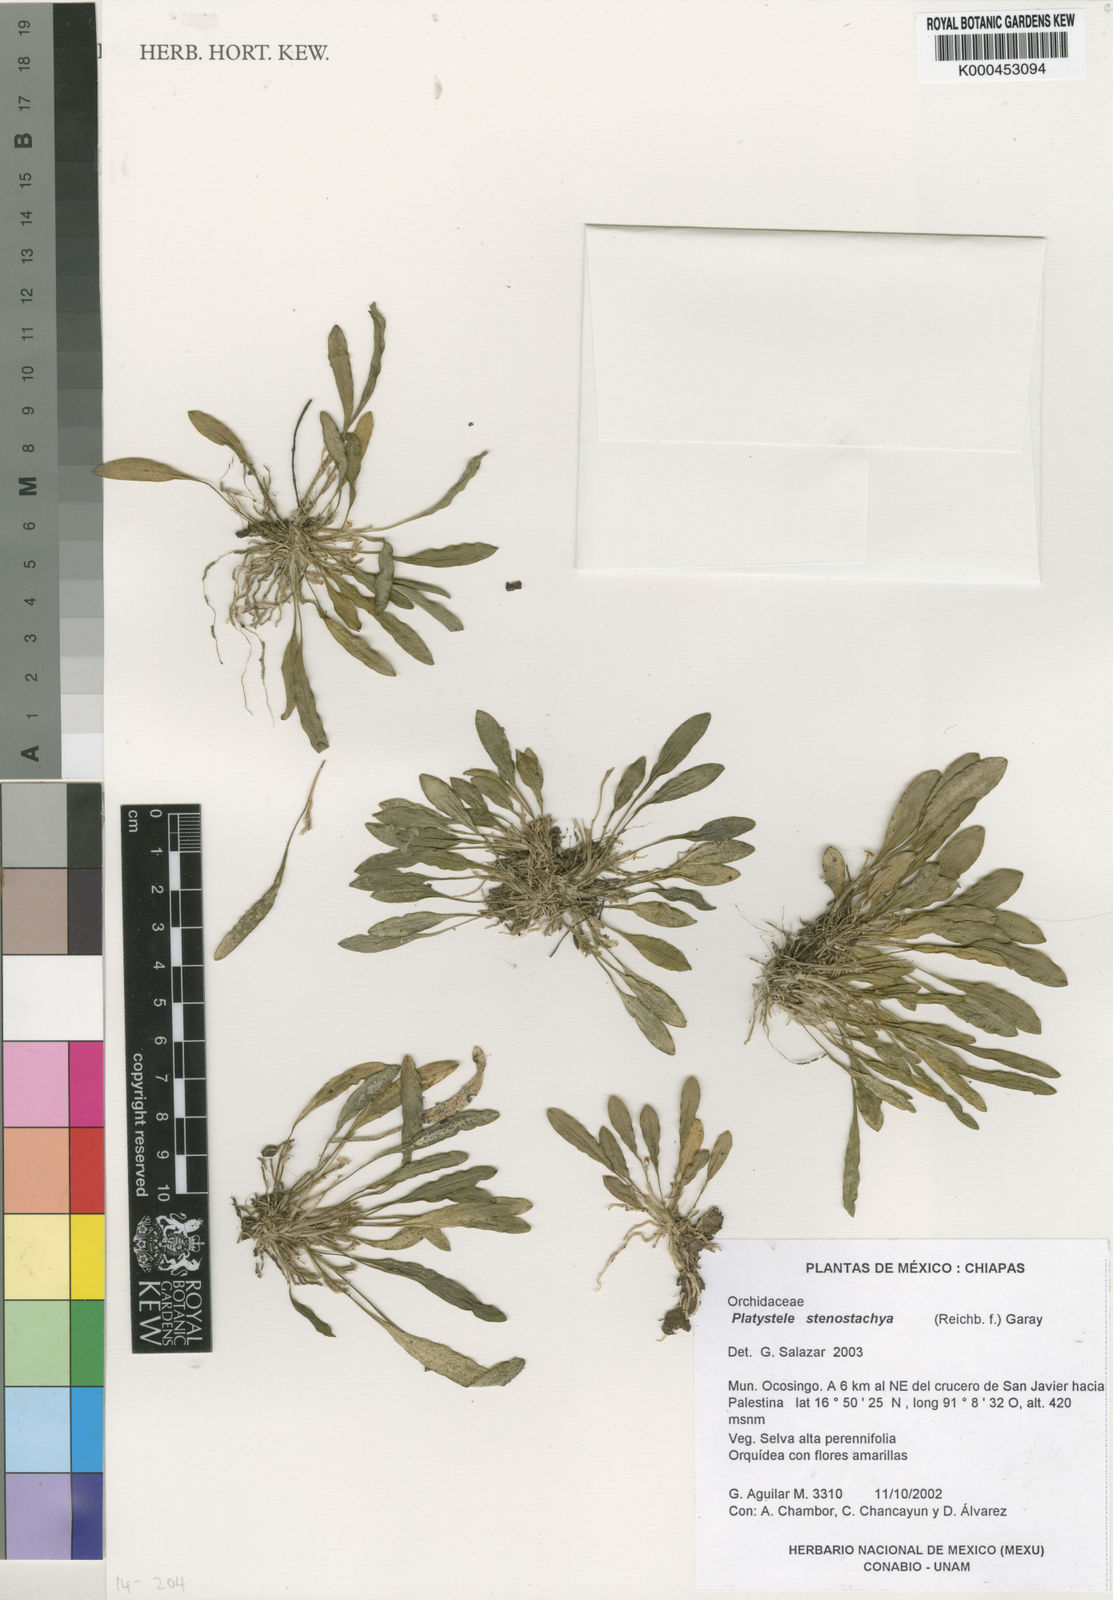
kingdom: Plantae
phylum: Tracheophyta
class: Liliopsida
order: Asparagales
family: Orchidaceae
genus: Platystele
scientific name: Platystele stenostachya
